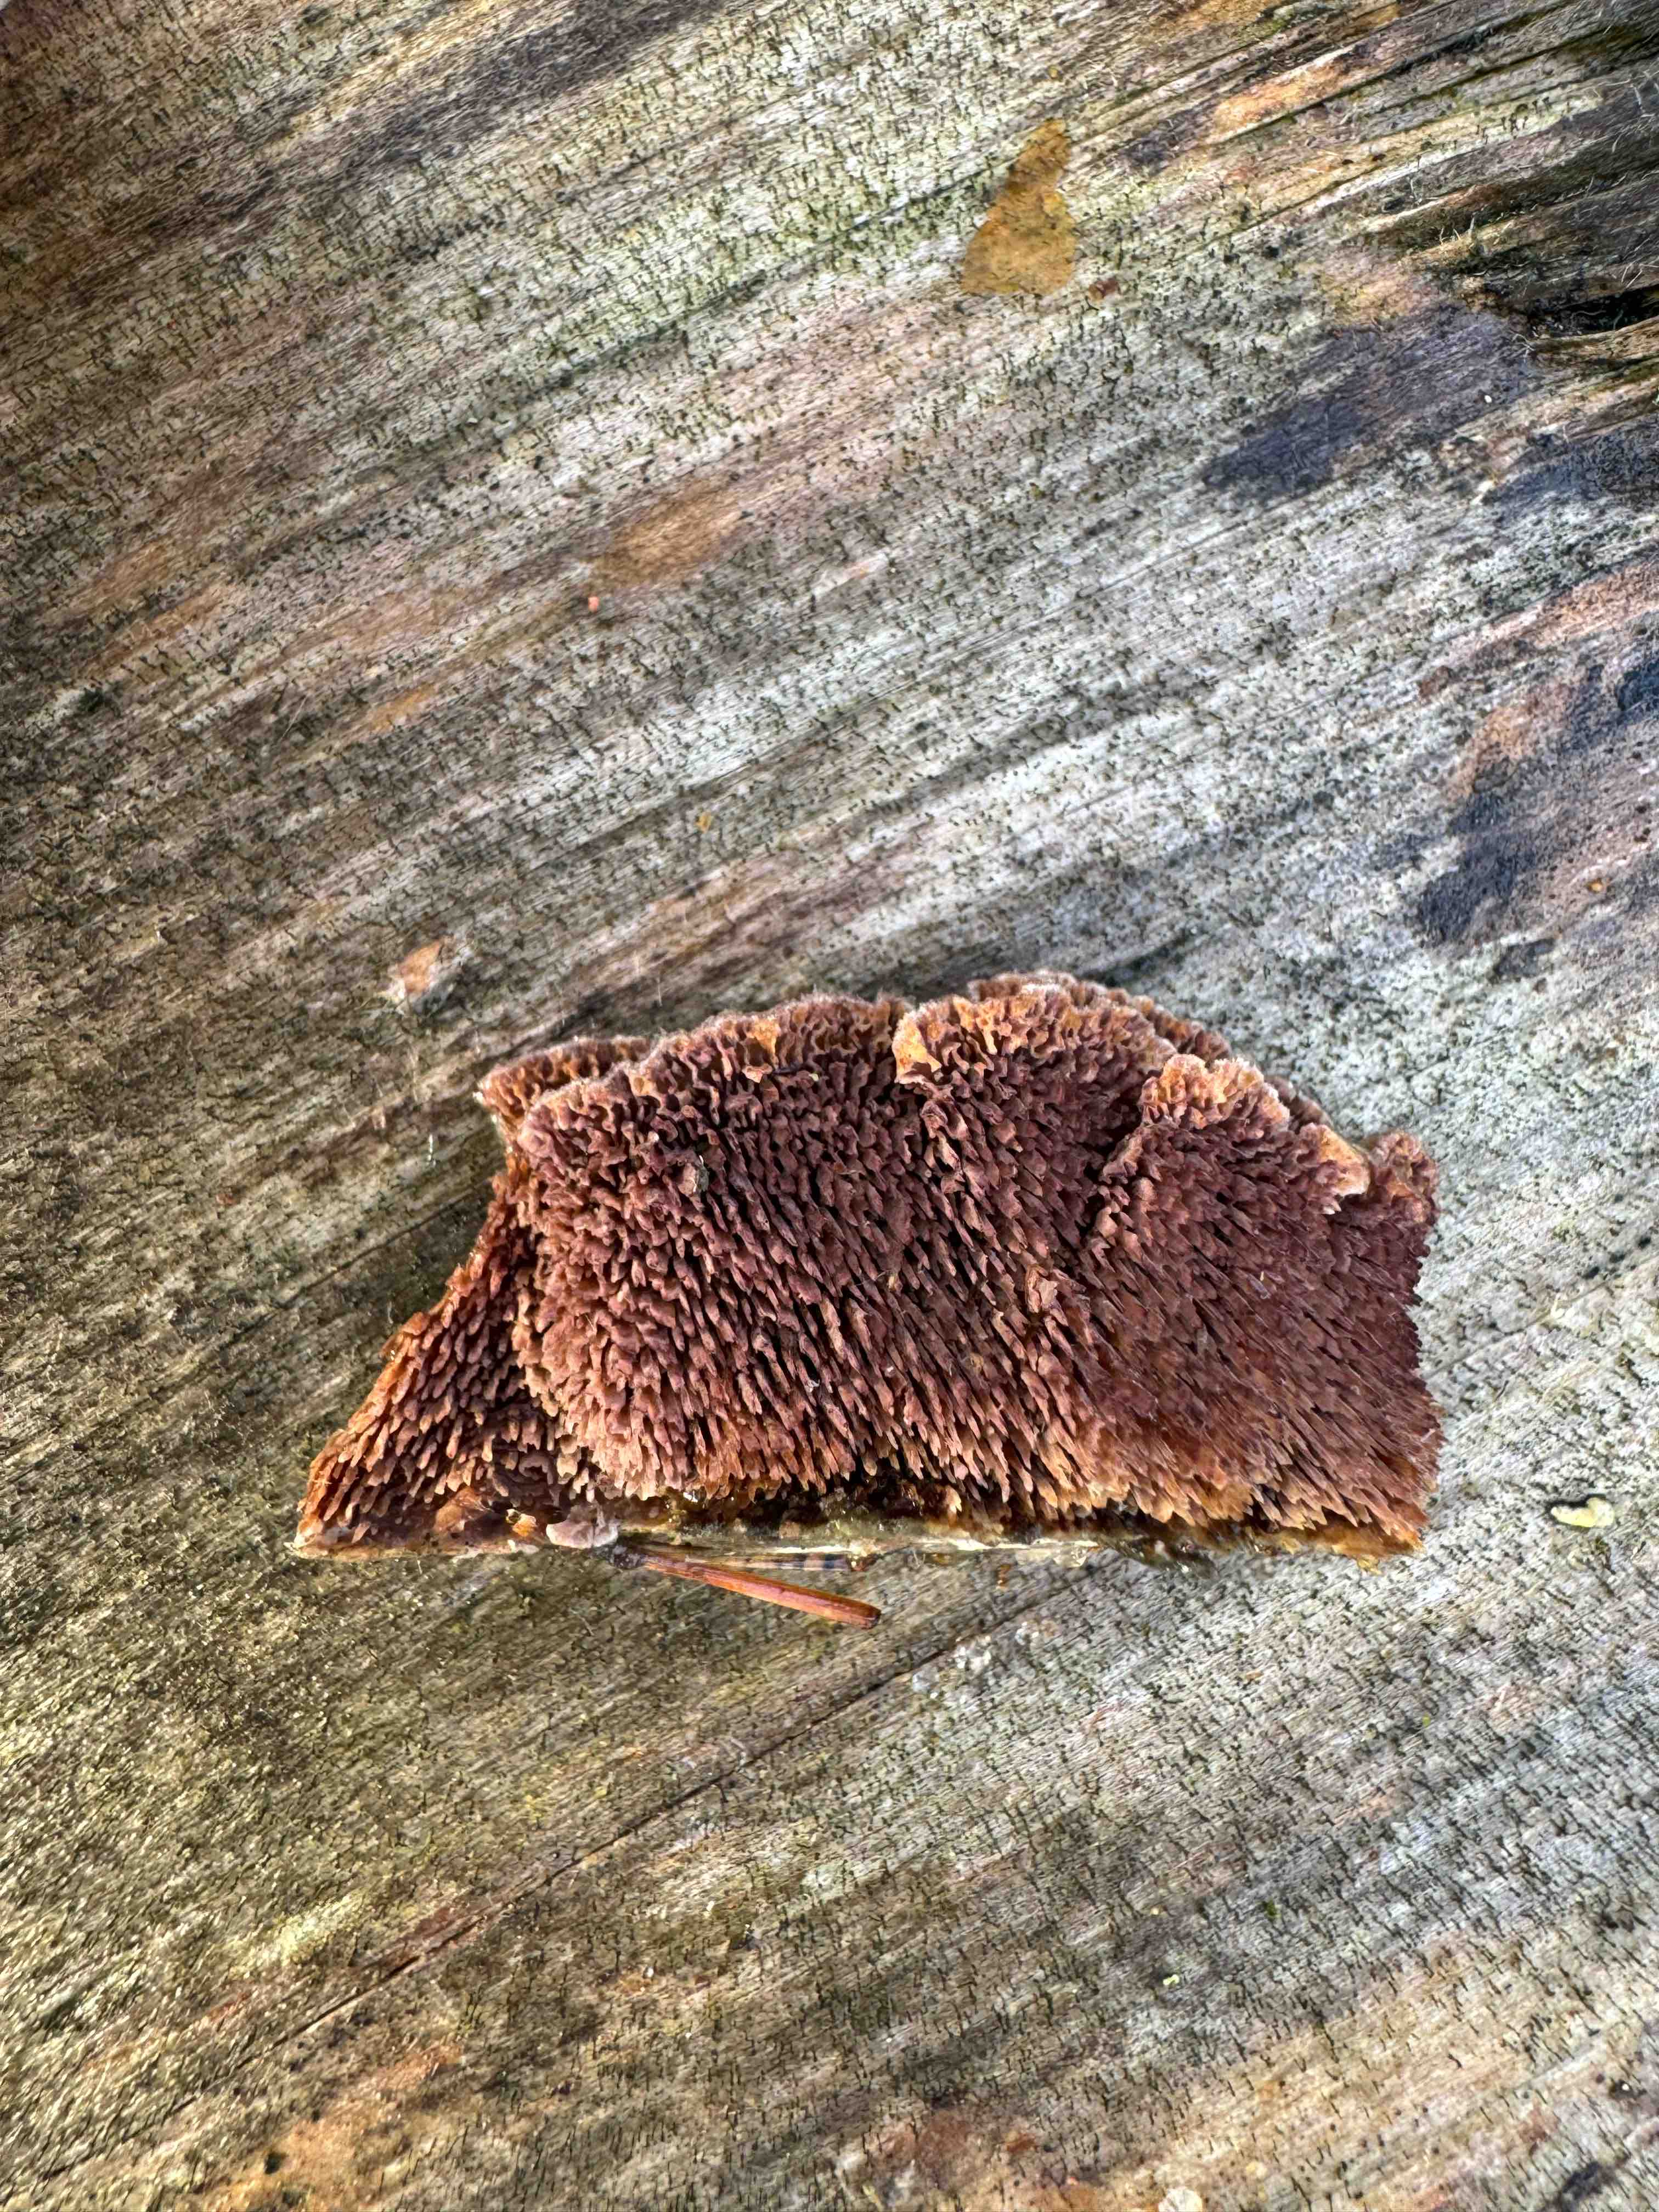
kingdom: Fungi
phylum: Basidiomycota
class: Agaricomycetes
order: Hymenochaetales
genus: Trichaptum
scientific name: Trichaptum fuscoviolaceum
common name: tandet violporesvamp
